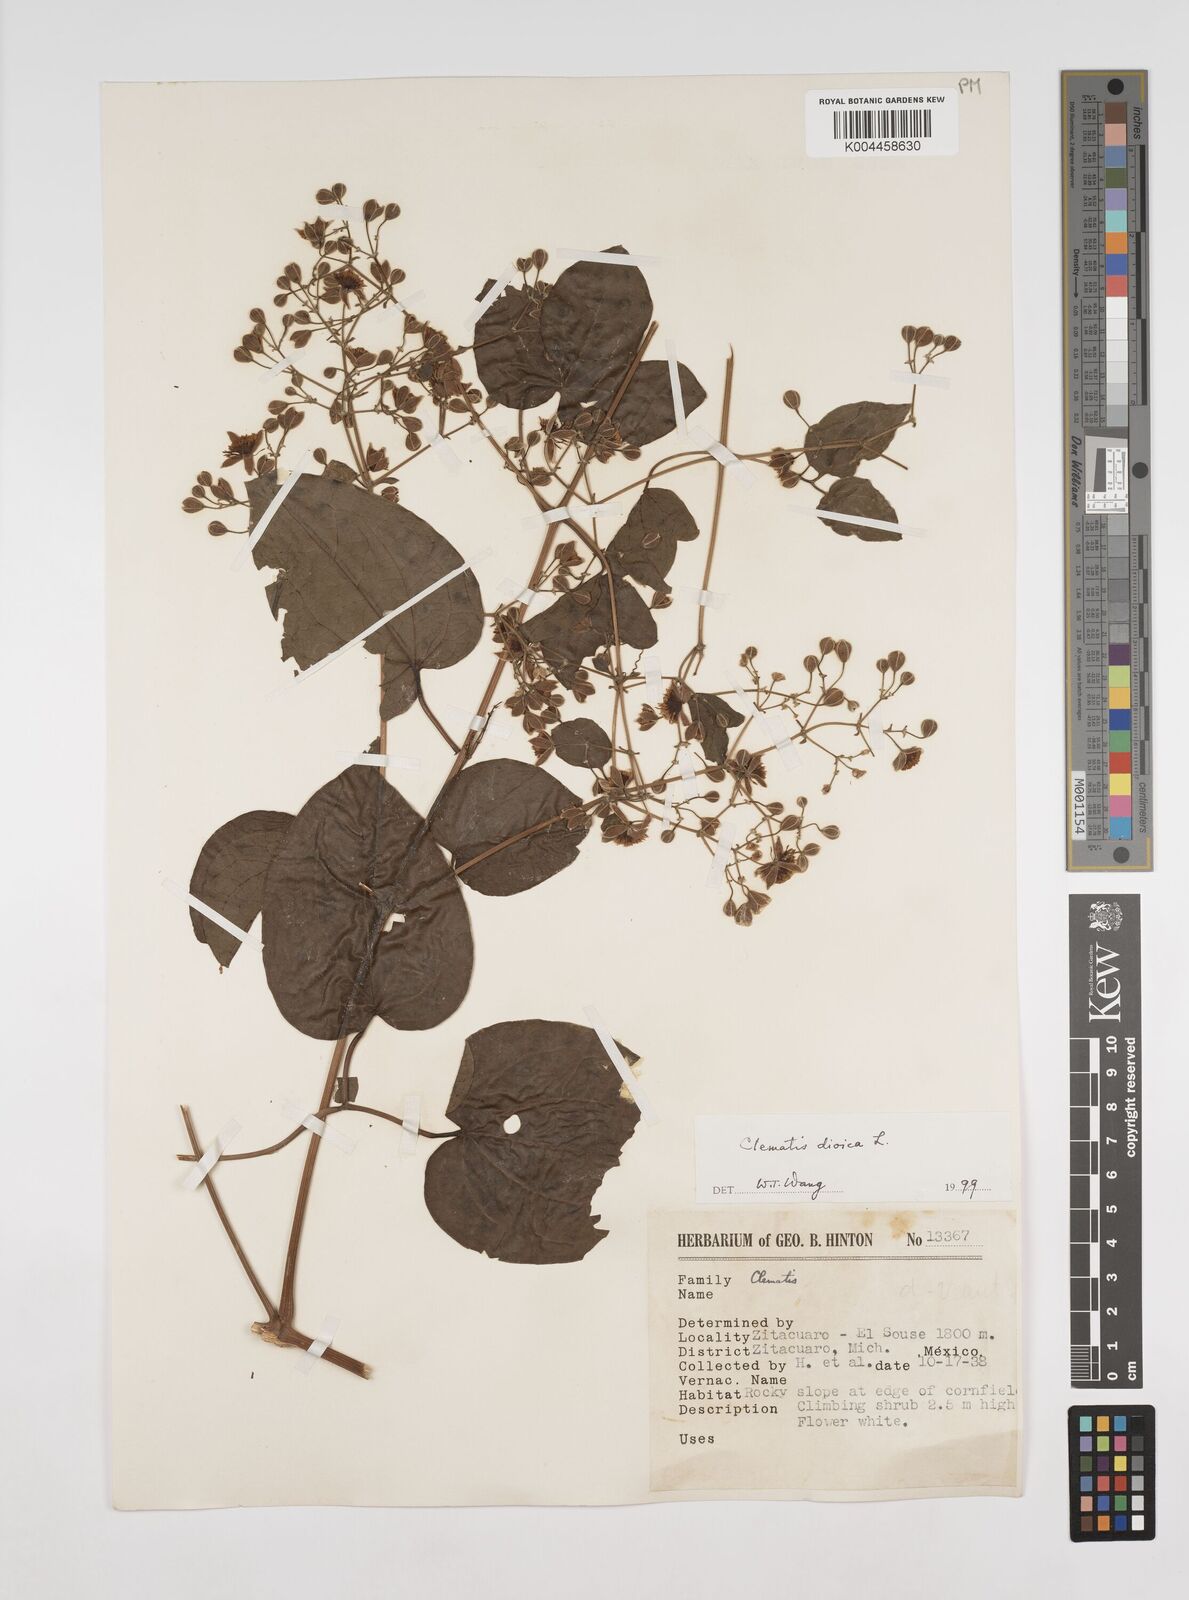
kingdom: Plantae
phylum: Tracheophyta
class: Magnoliopsida
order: Ranunculales
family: Ranunculaceae
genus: Clematis
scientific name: Clematis dioica
